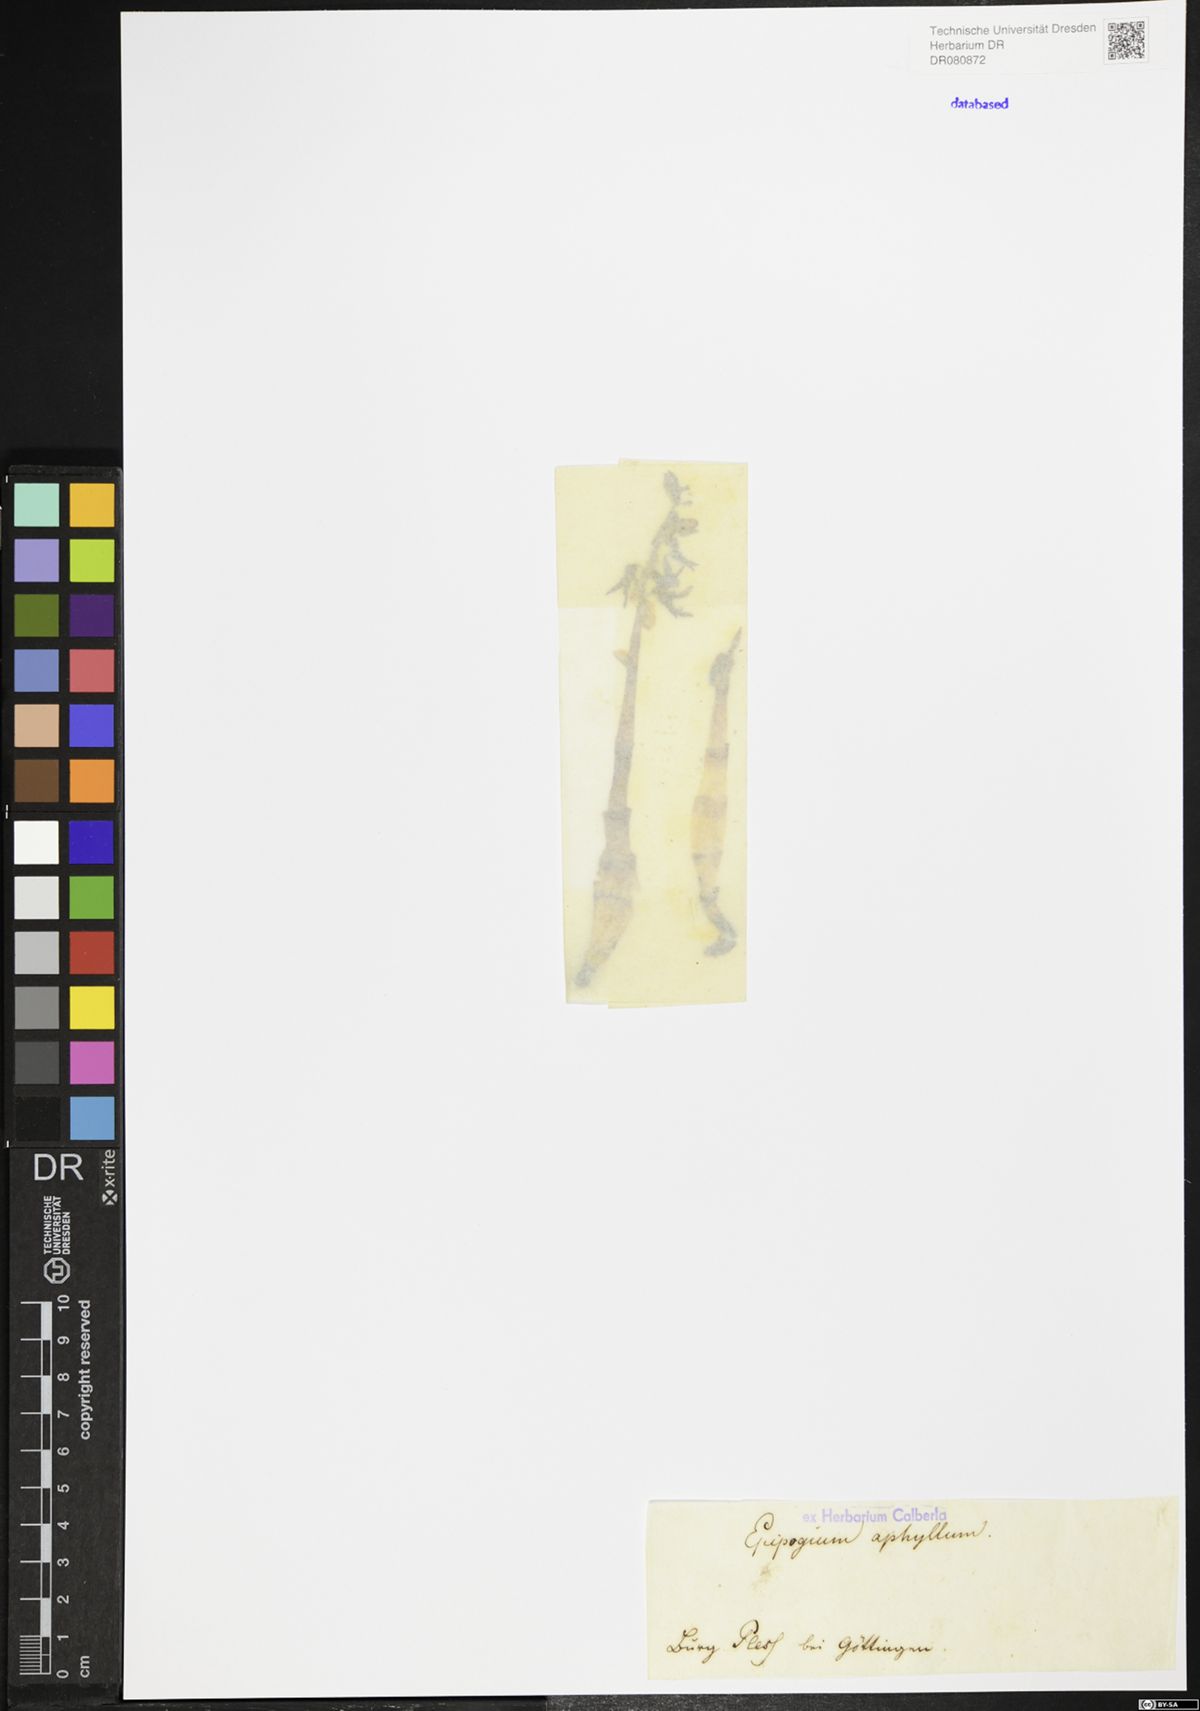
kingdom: Plantae
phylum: Tracheophyta
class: Liliopsida
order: Asparagales
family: Orchidaceae
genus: Epipogium
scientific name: Epipogium aphyllum
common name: Ghost orchid
